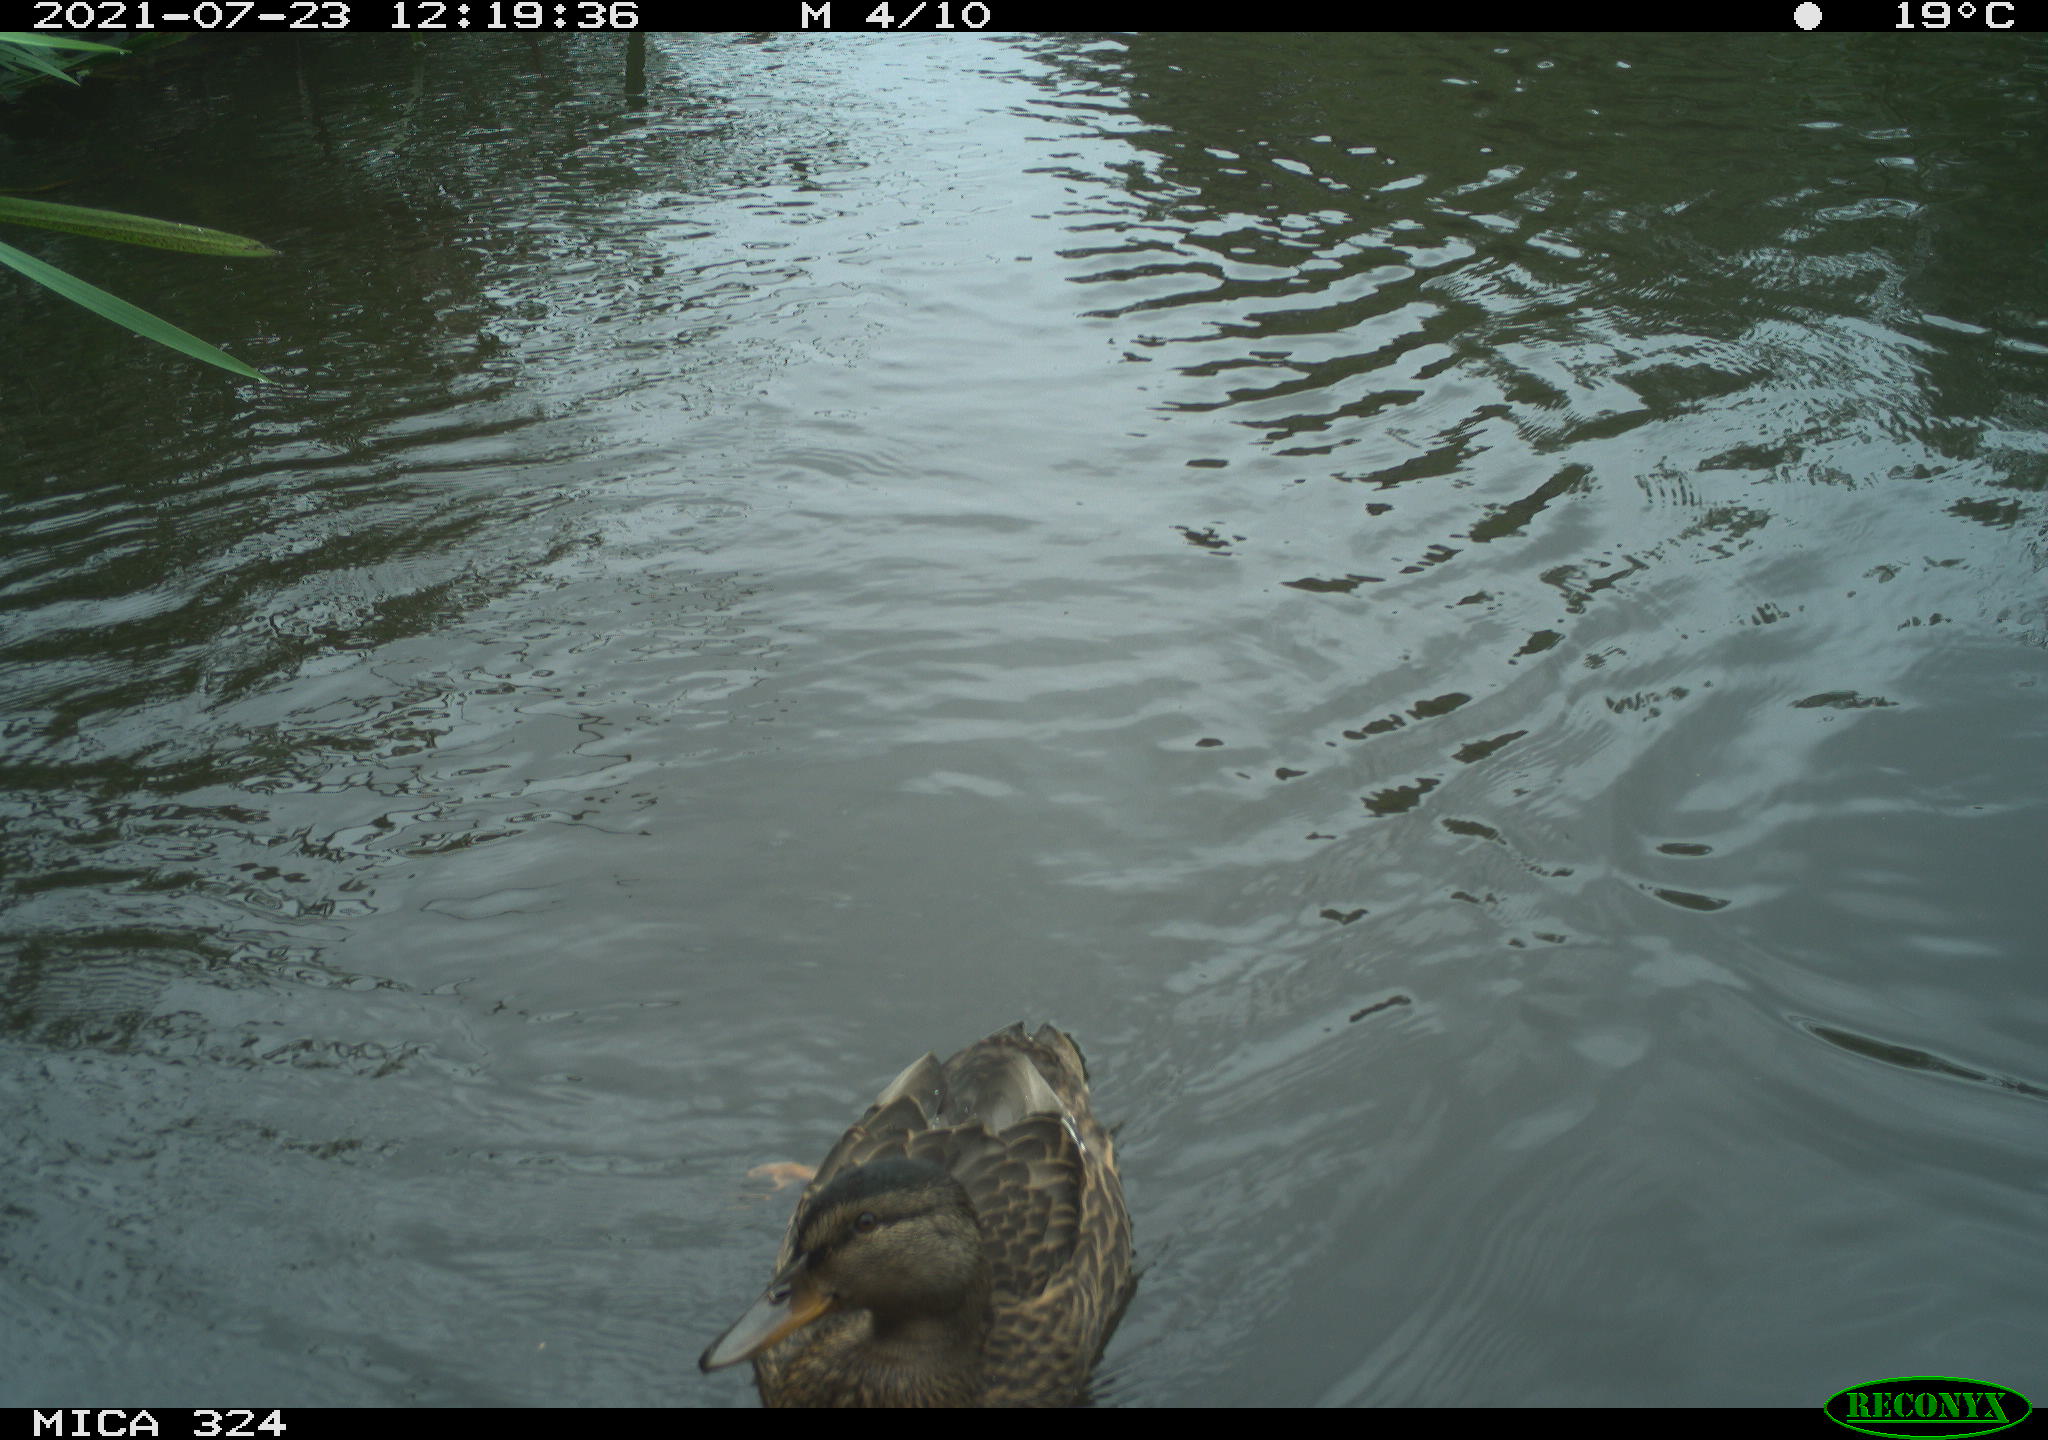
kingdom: Animalia
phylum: Chordata
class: Aves
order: Anseriformes
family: Anatidae
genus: Anas
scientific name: Anas platyrhynchos
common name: Mallard
